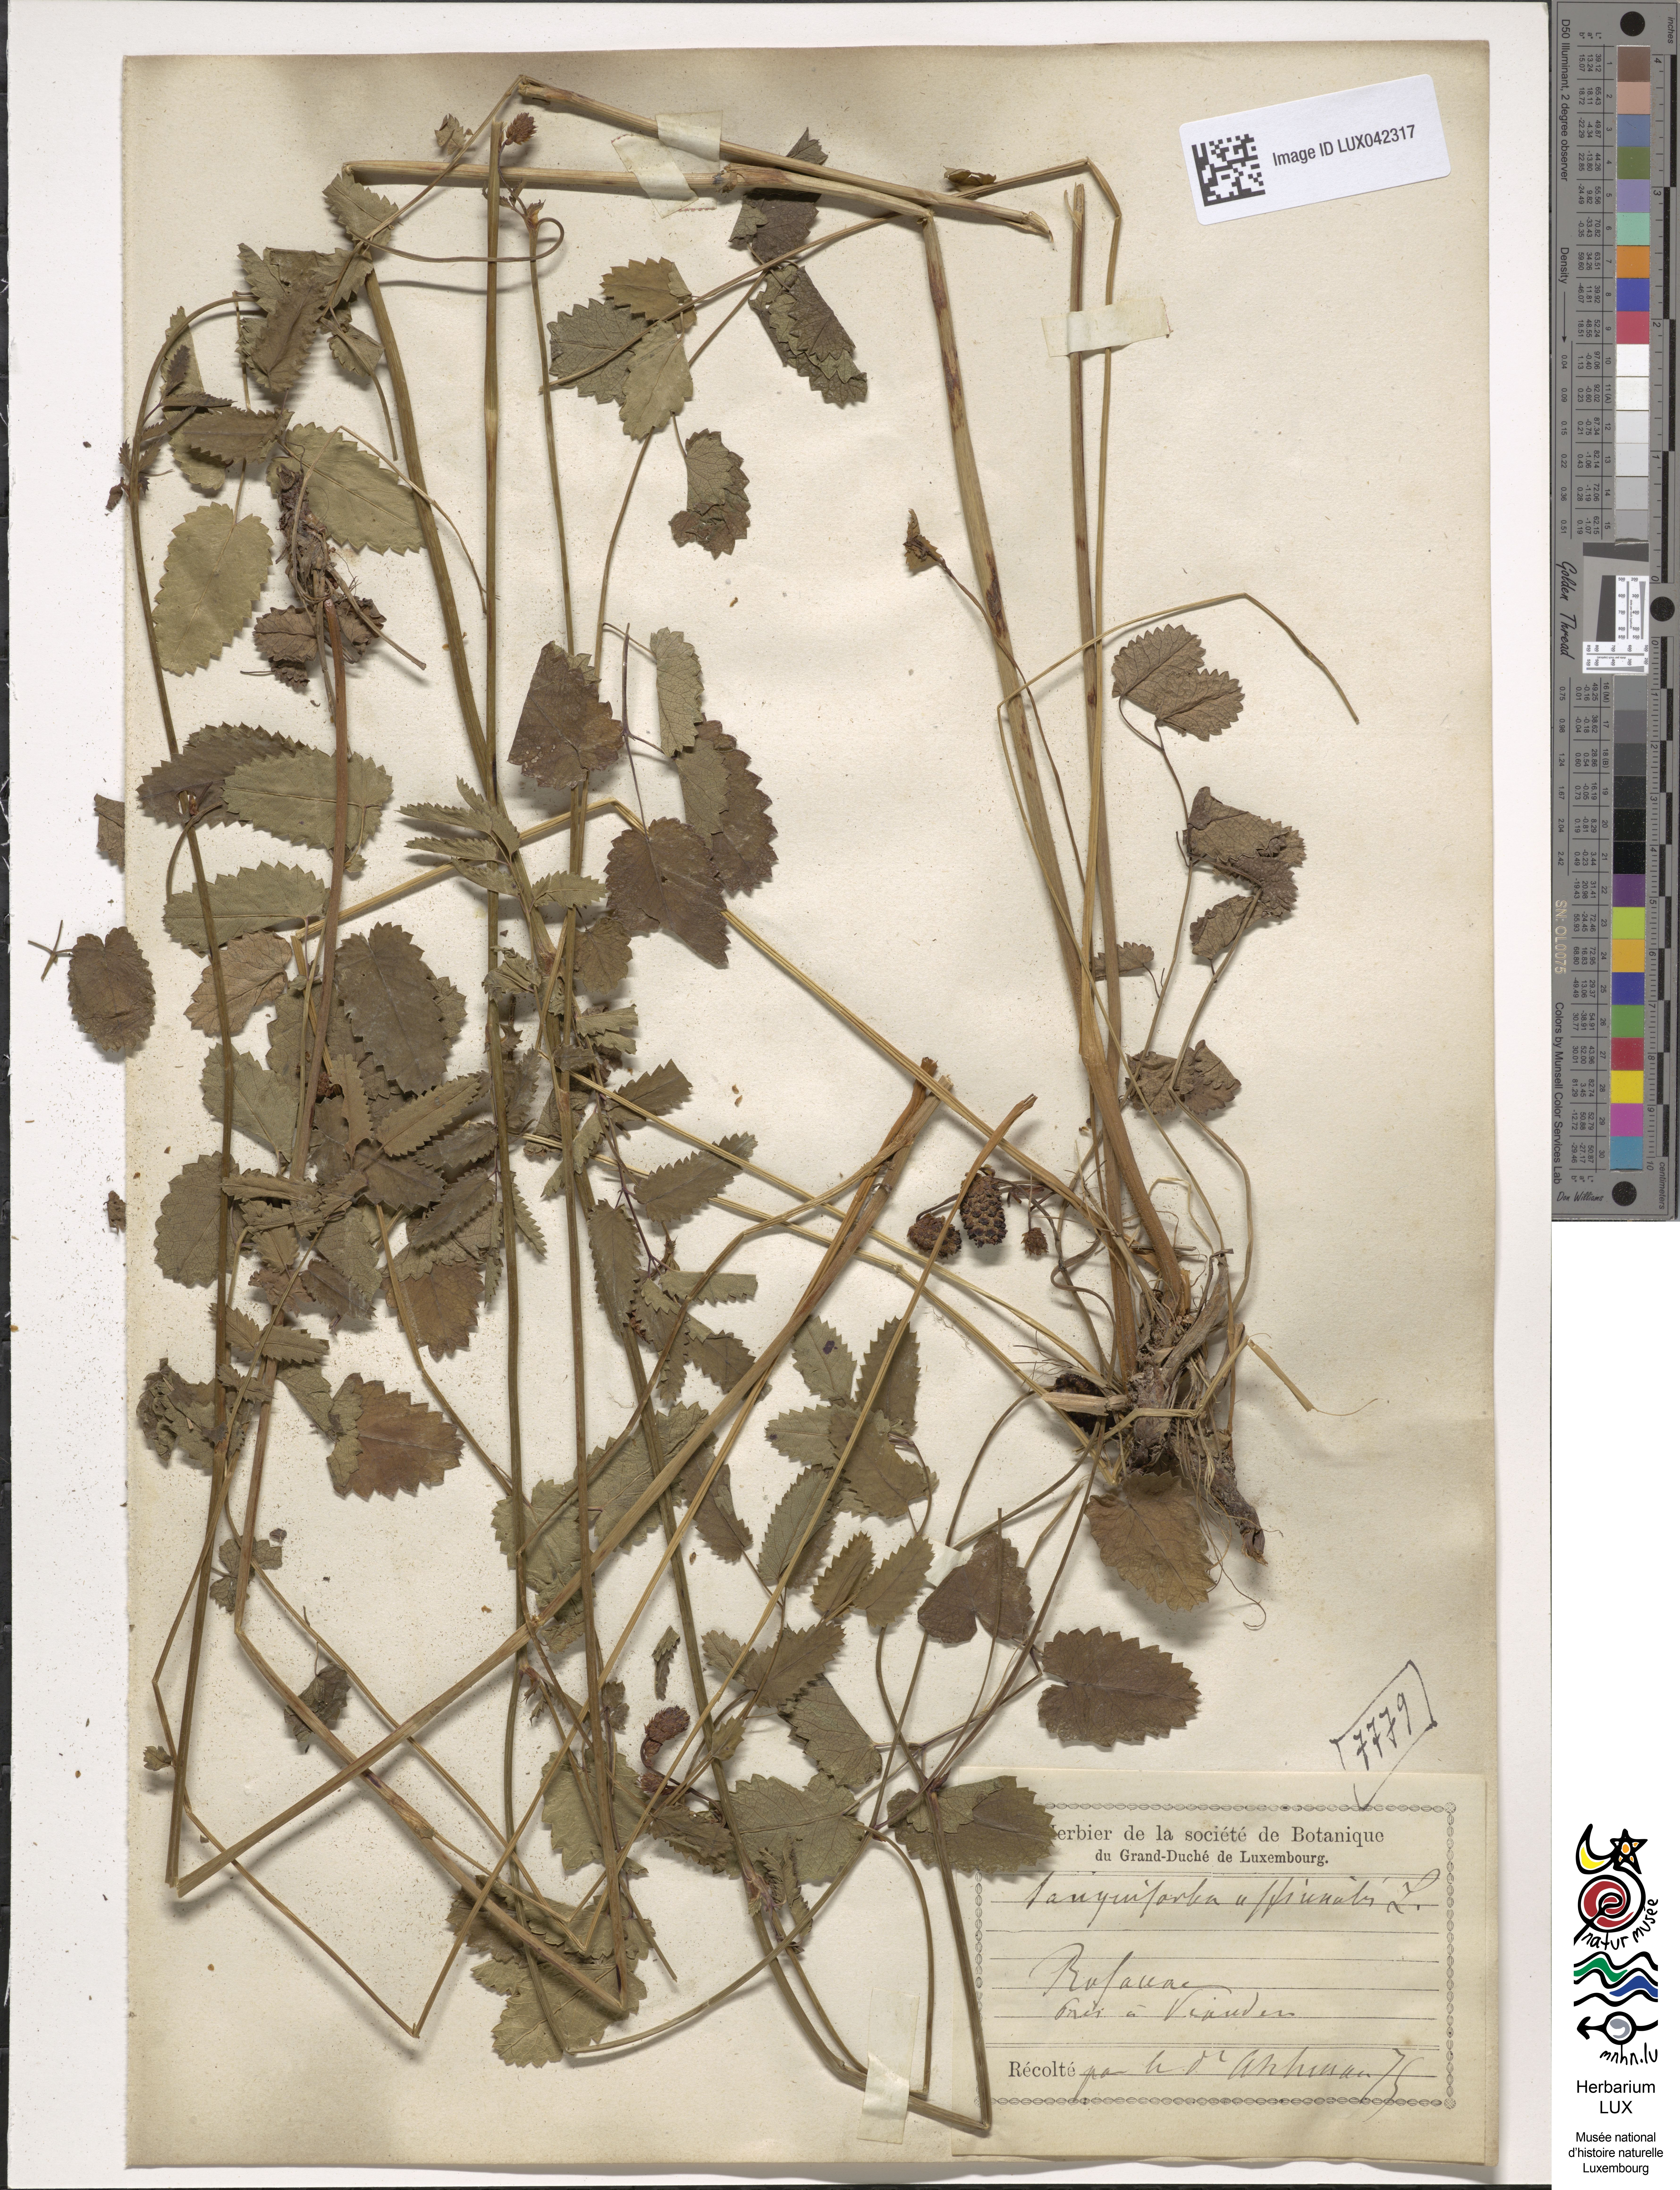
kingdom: Plantae
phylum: Tracheophyta
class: Magnoliopsida
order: Rosales
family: Rosaceae
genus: Sanguisorba
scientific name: Sanguisorba officinalis
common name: Great burnet
